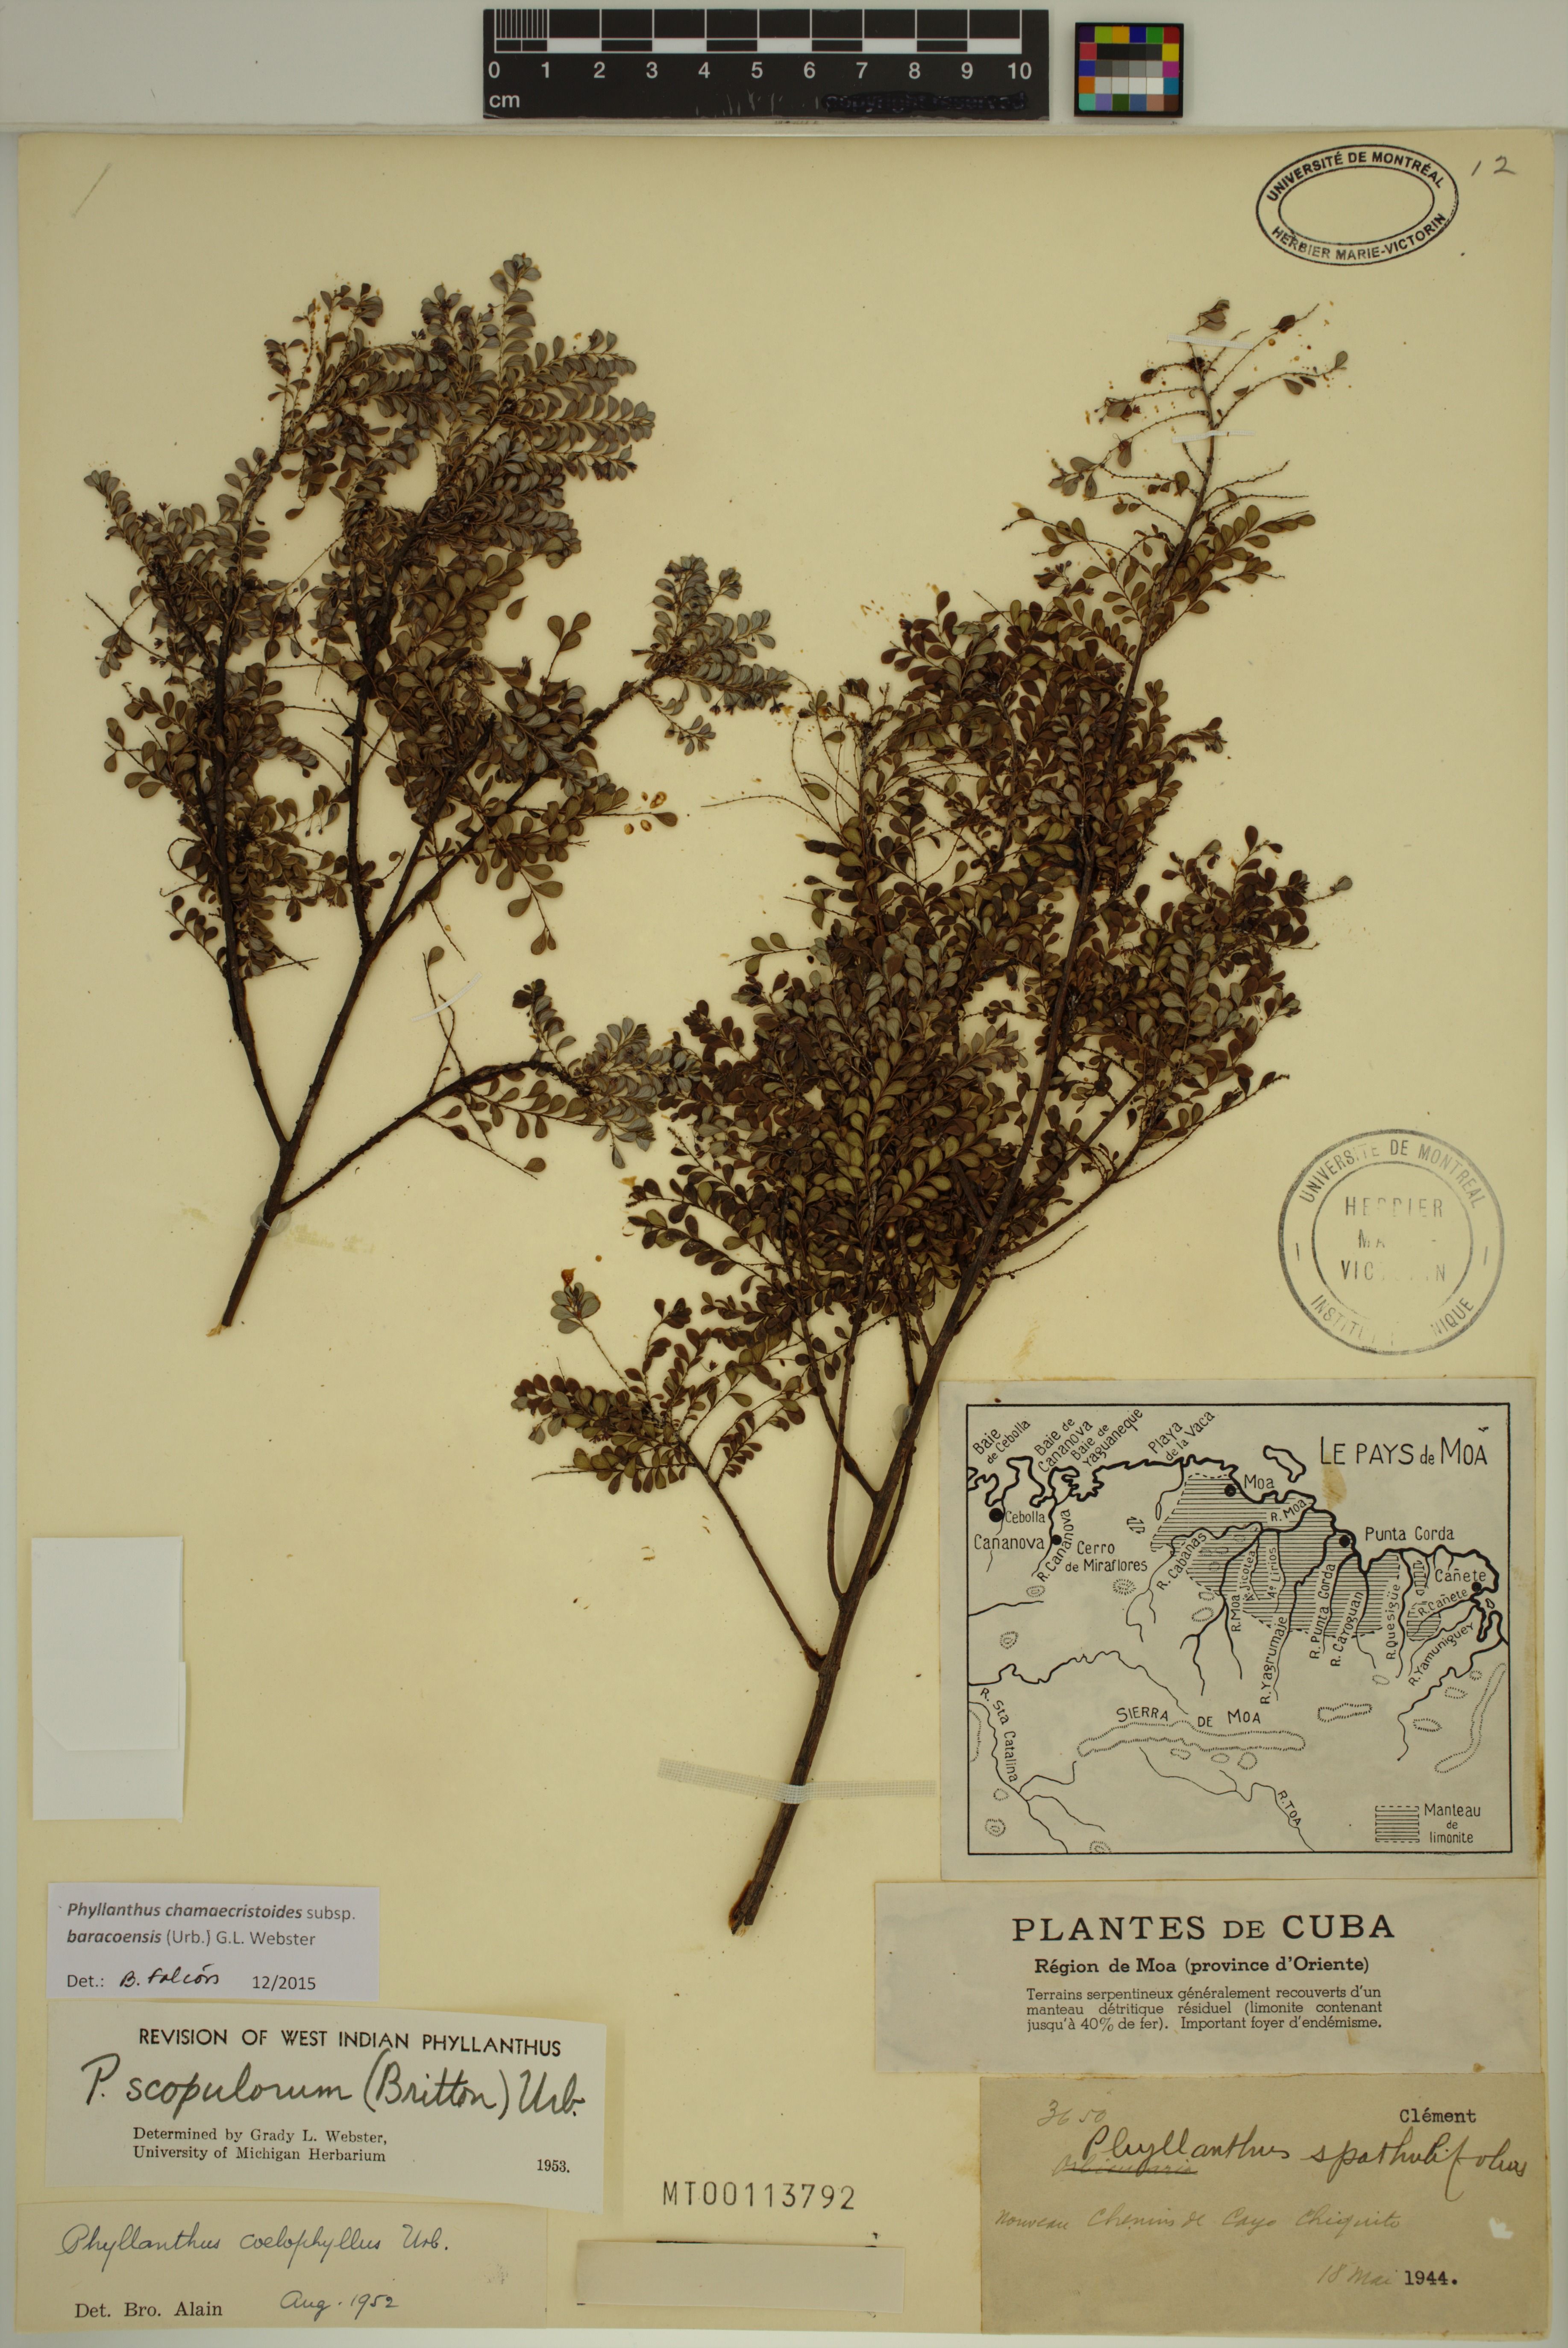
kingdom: Plantae
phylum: Tracheophyta
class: Magnoliopsida
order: Malpighiales
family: Phyllanthaceae
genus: Phyllanthus
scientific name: Phyllanthus chamaecristoides
